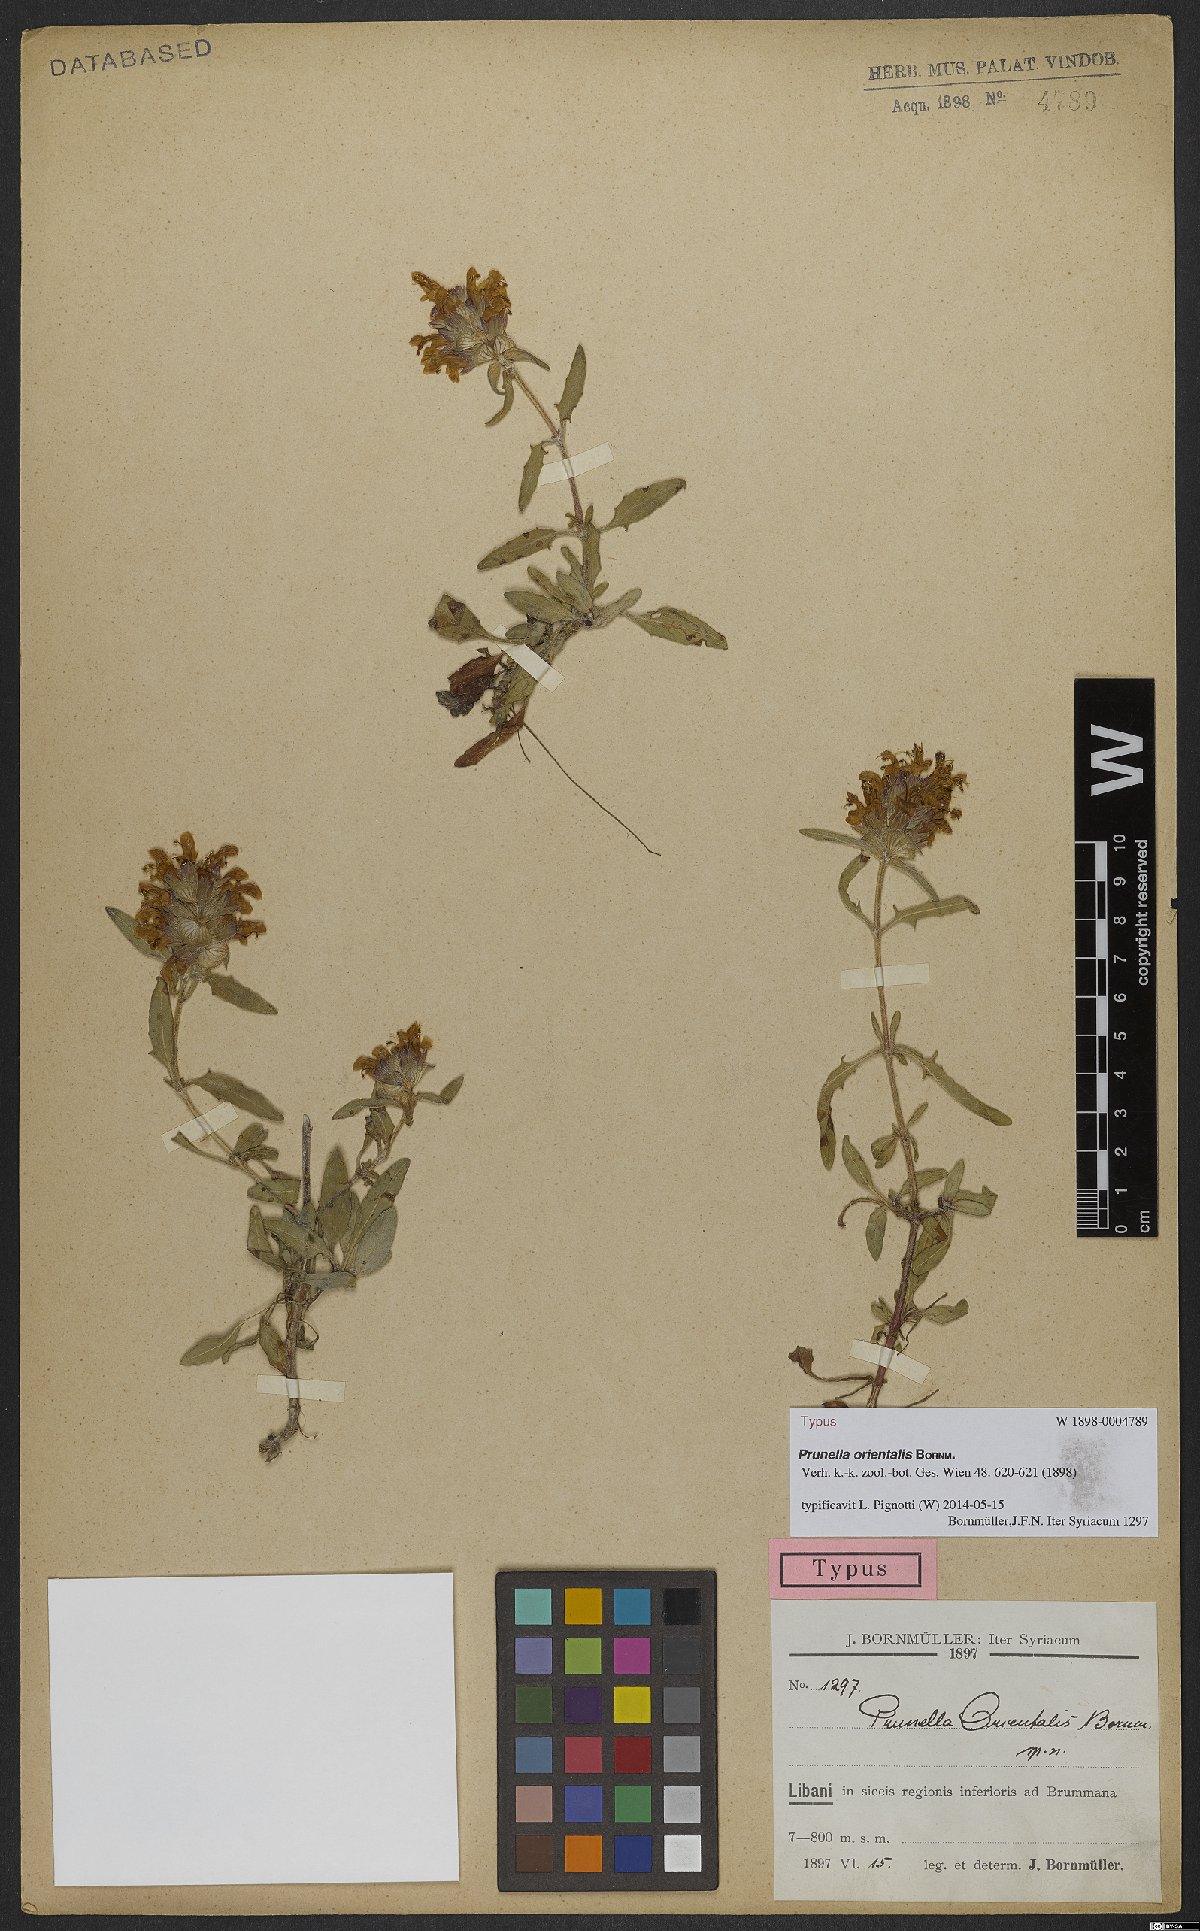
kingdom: Plantae
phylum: Tracheophyta
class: Magnoliopsida
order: Lamiales
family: Lamiaceae
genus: Prunella
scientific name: Prunella orientalis
